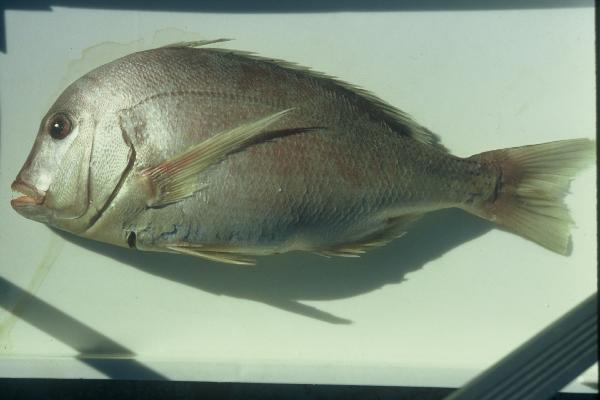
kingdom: Animalia
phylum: Chordata
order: Perciformes
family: Sparidae
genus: Chrysoblephus
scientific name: Chrysoblephus anglicus
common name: Englishman
